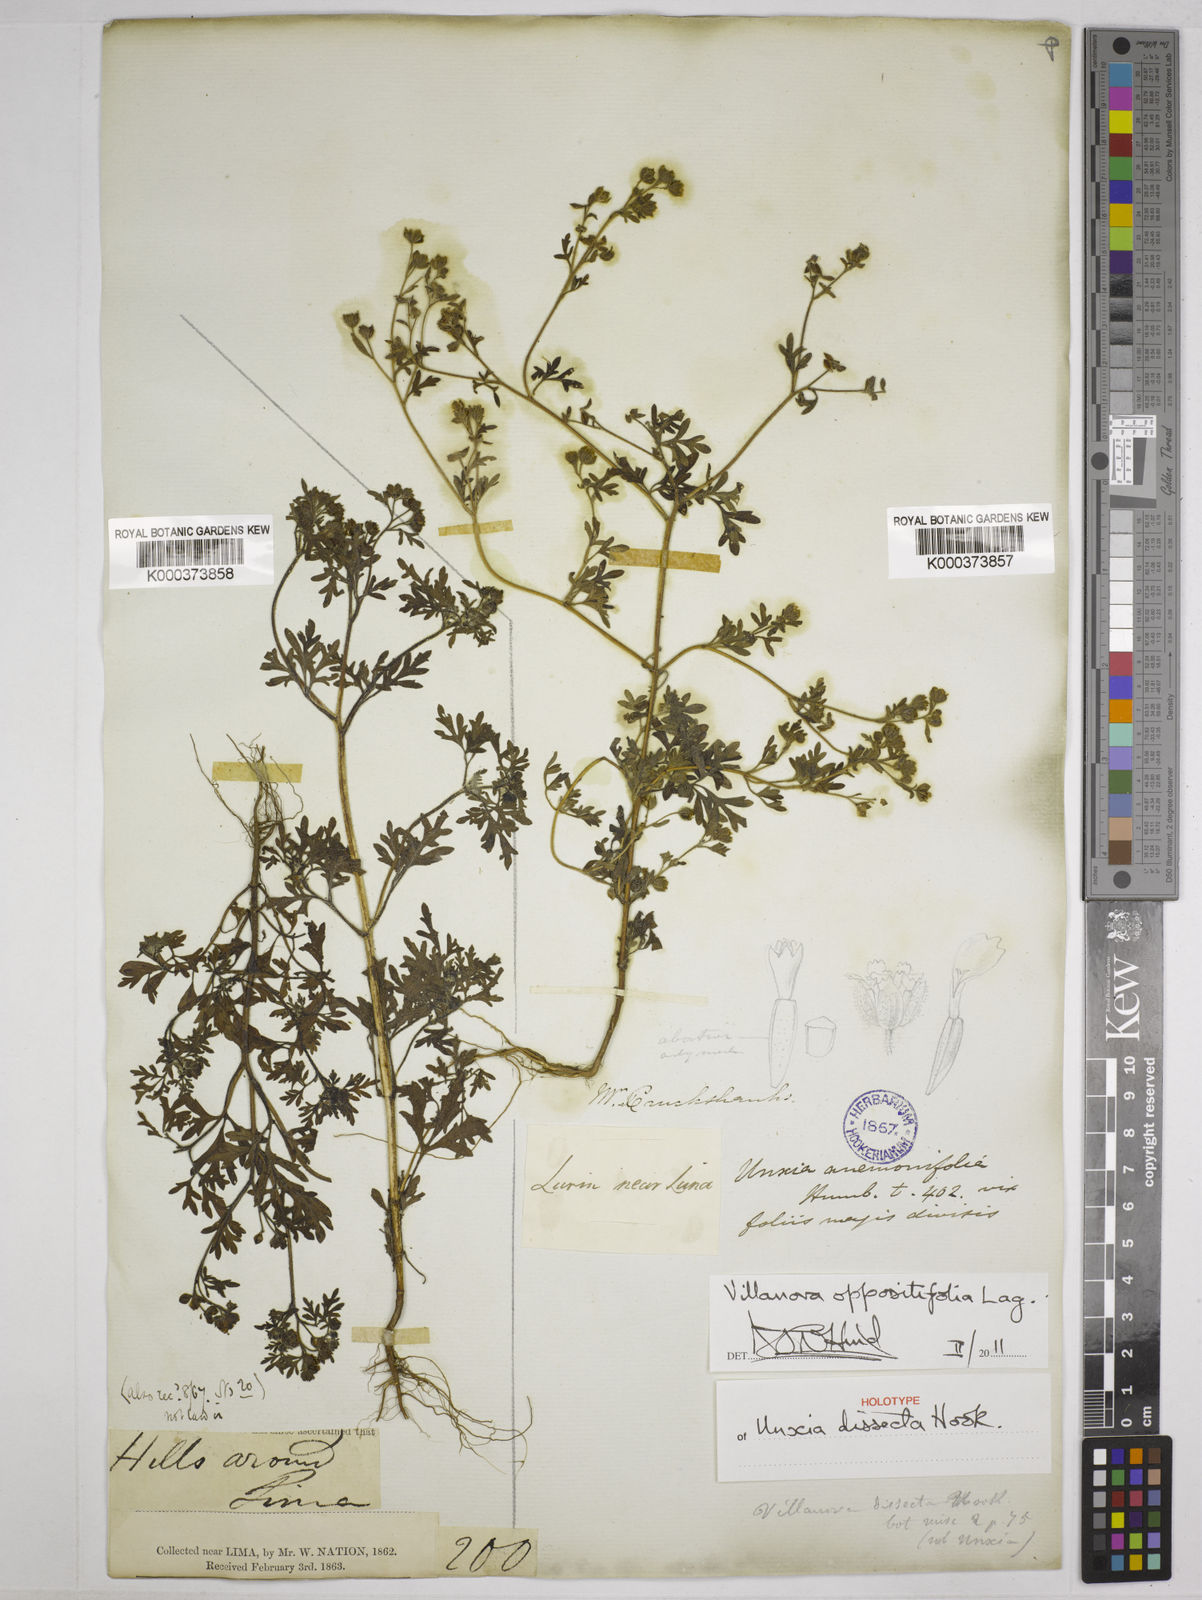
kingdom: Plantae
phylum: Tracheophyta
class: Magnoliopsida
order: Asterales
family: Asteraceae
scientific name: Asteraceae
